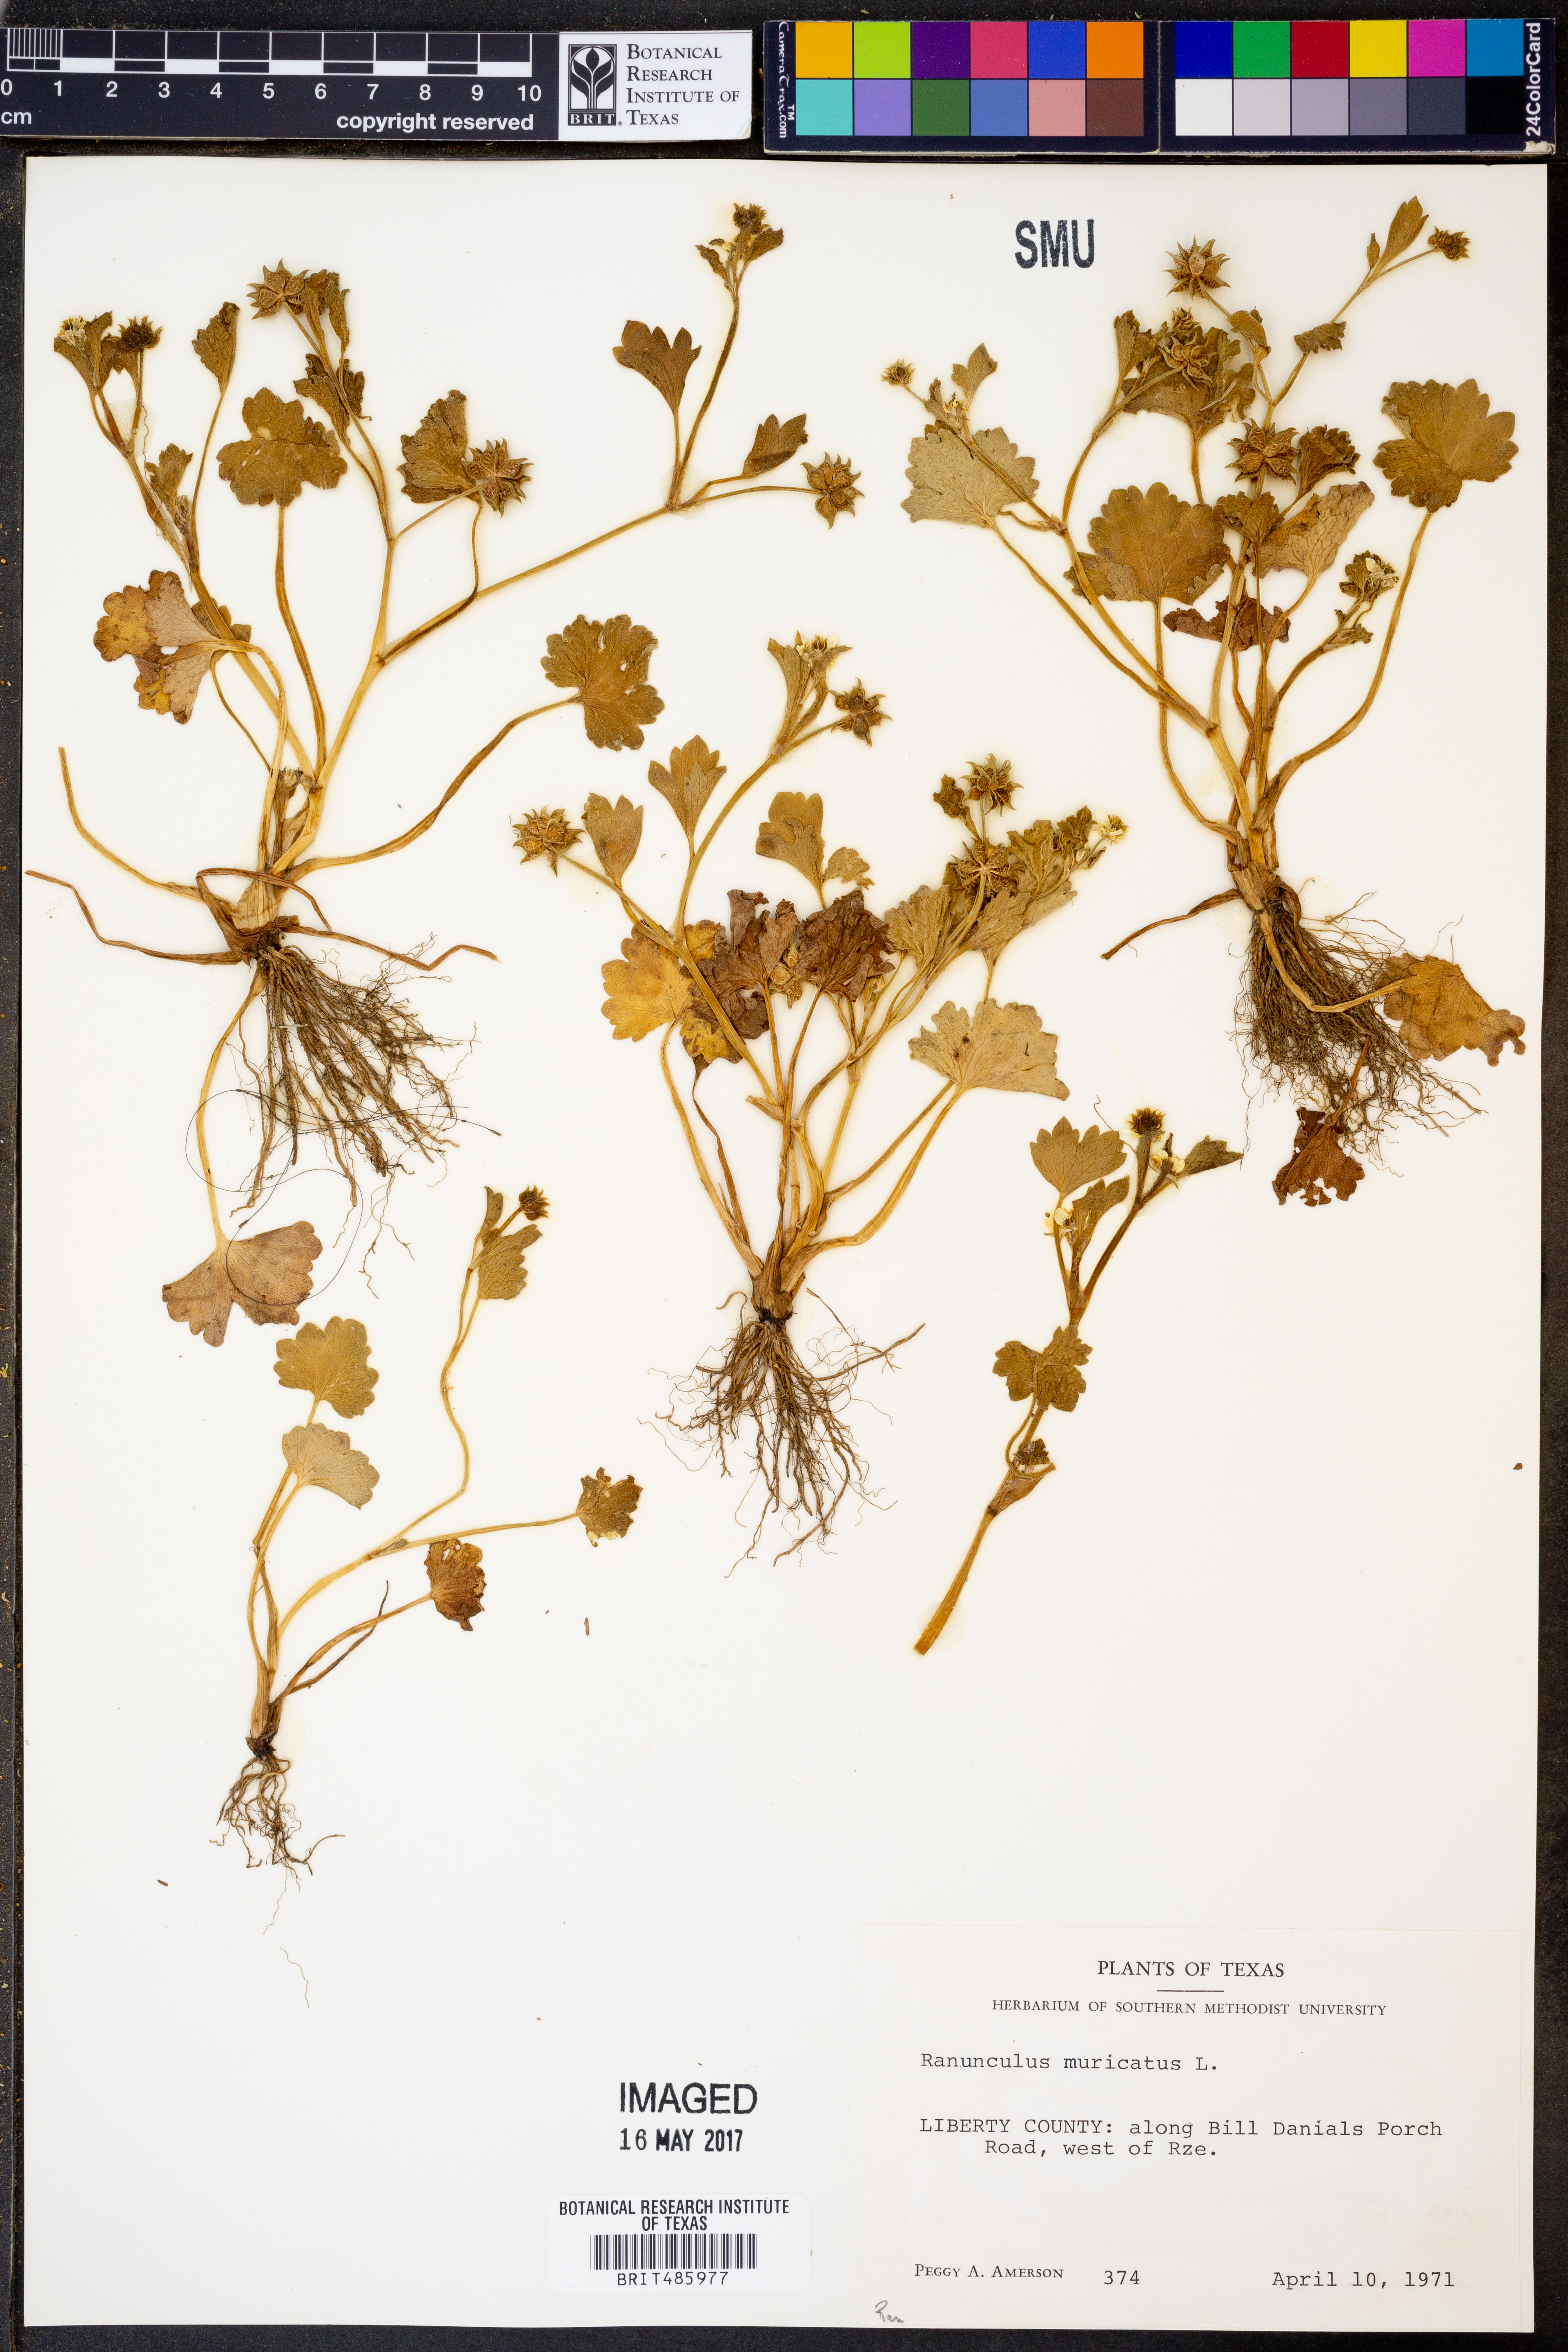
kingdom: Plantae
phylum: Tracheophyta
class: Magnoliopsida
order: Ranunculales
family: Ranunculaceae
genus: Ranunculus
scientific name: Ranunculus muricatus
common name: Rough-fruited buttercup
